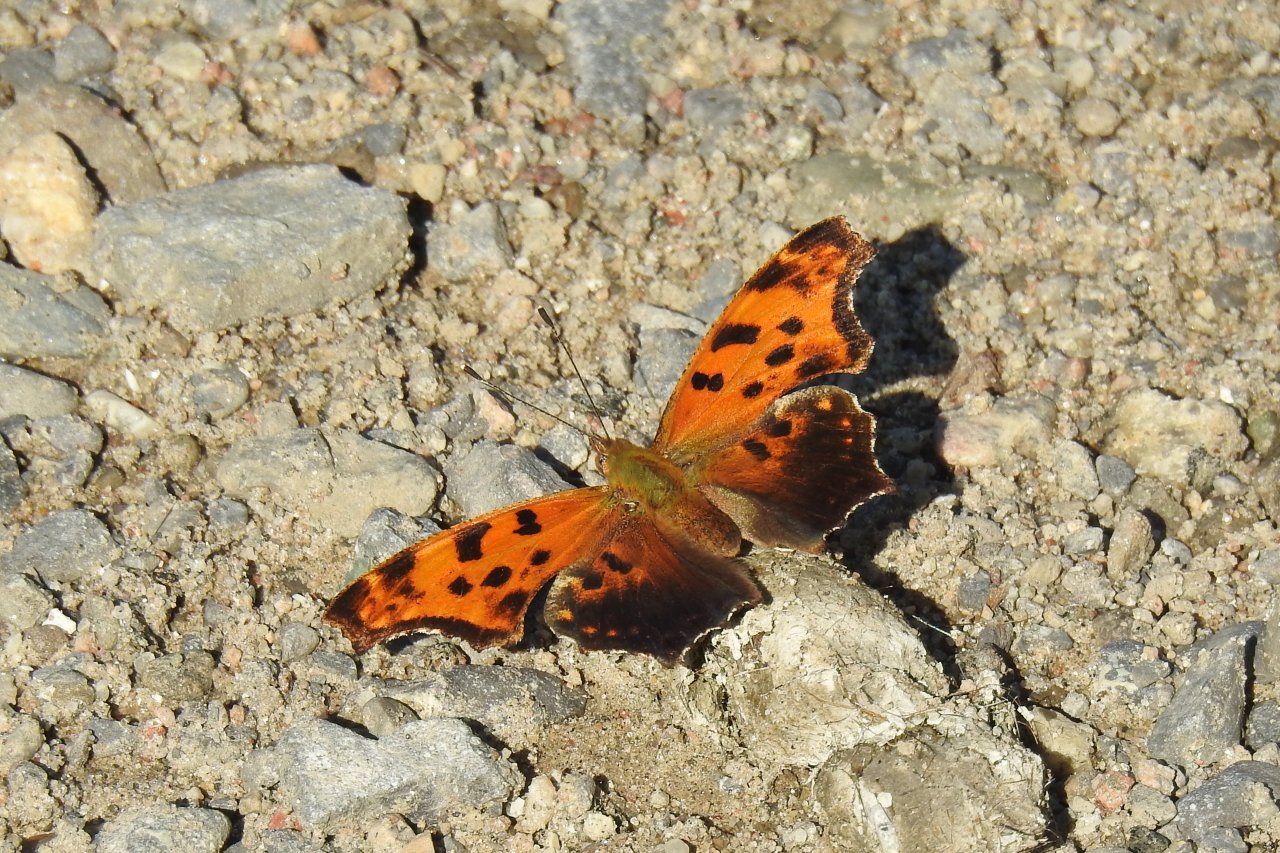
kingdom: Animalia
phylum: Arthropoda
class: Insecta
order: Lepidoptera
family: Nymphalidae
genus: Polygonia
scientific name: Polygonia comma
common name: Eastern Comma
